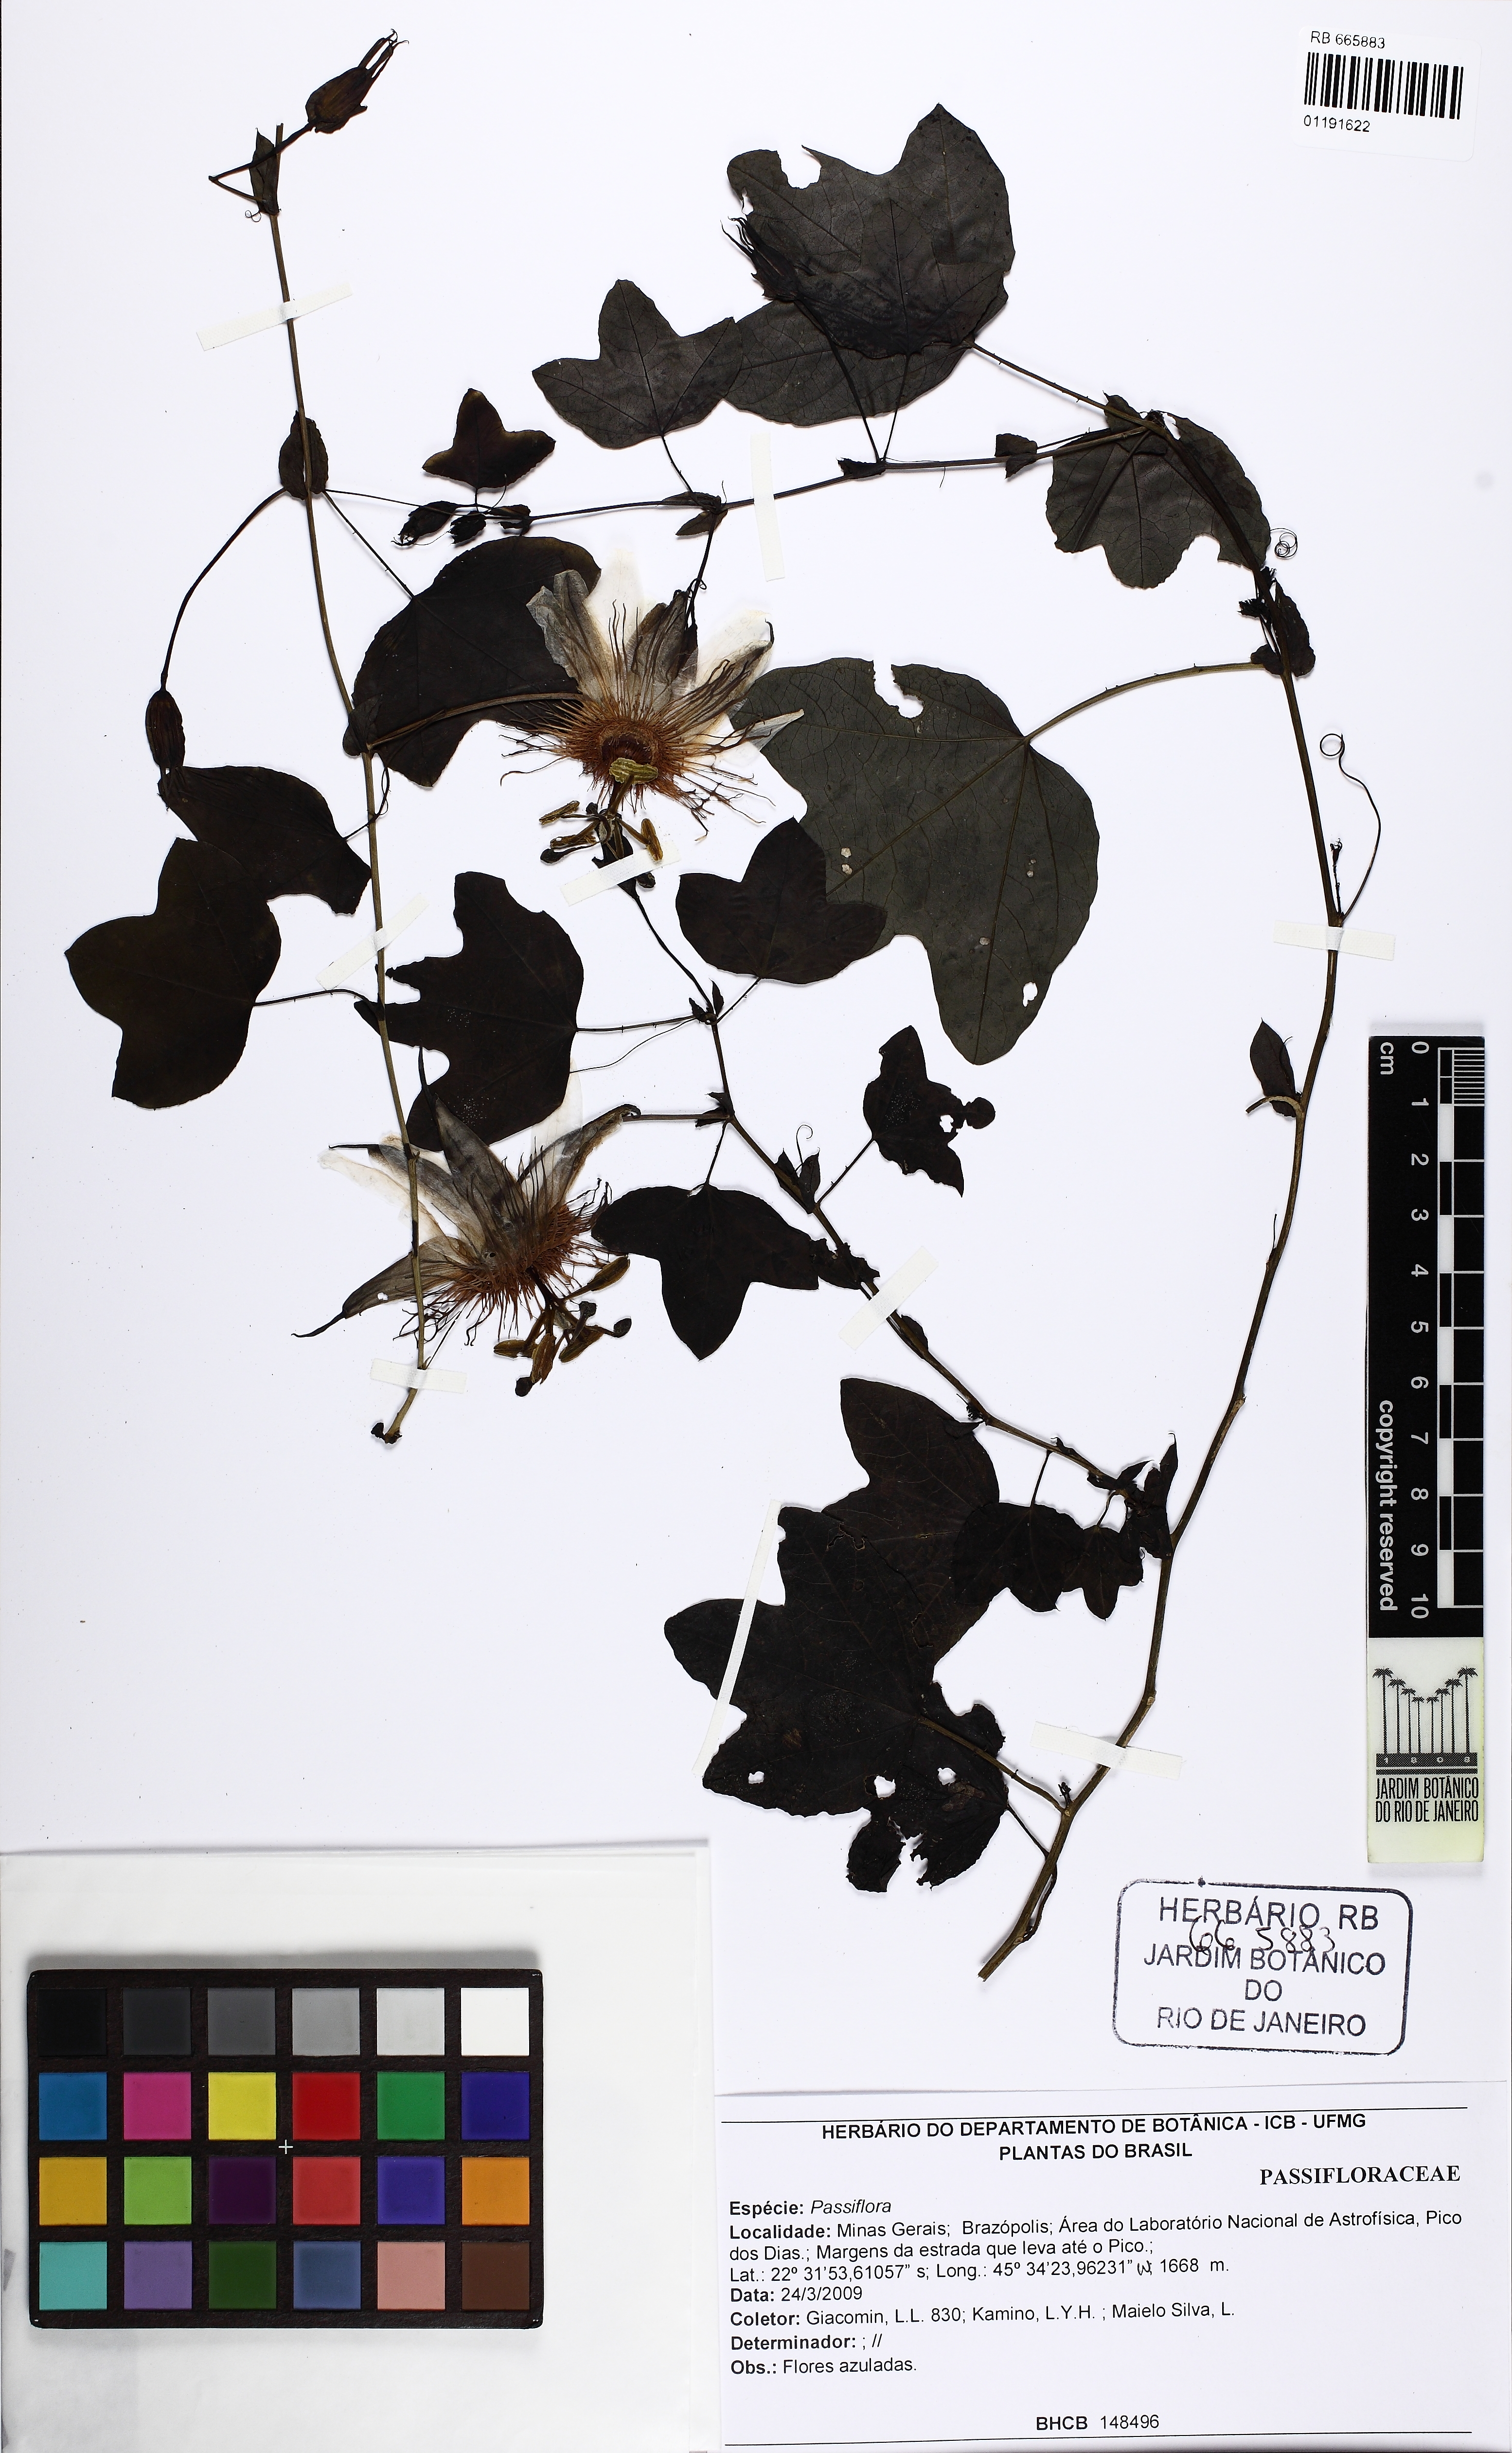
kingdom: Plantae
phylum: Tracheophyta
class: Magnoliopsida
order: Malpighiales
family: Passifloraceae
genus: Passiflora
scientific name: Passiflora
